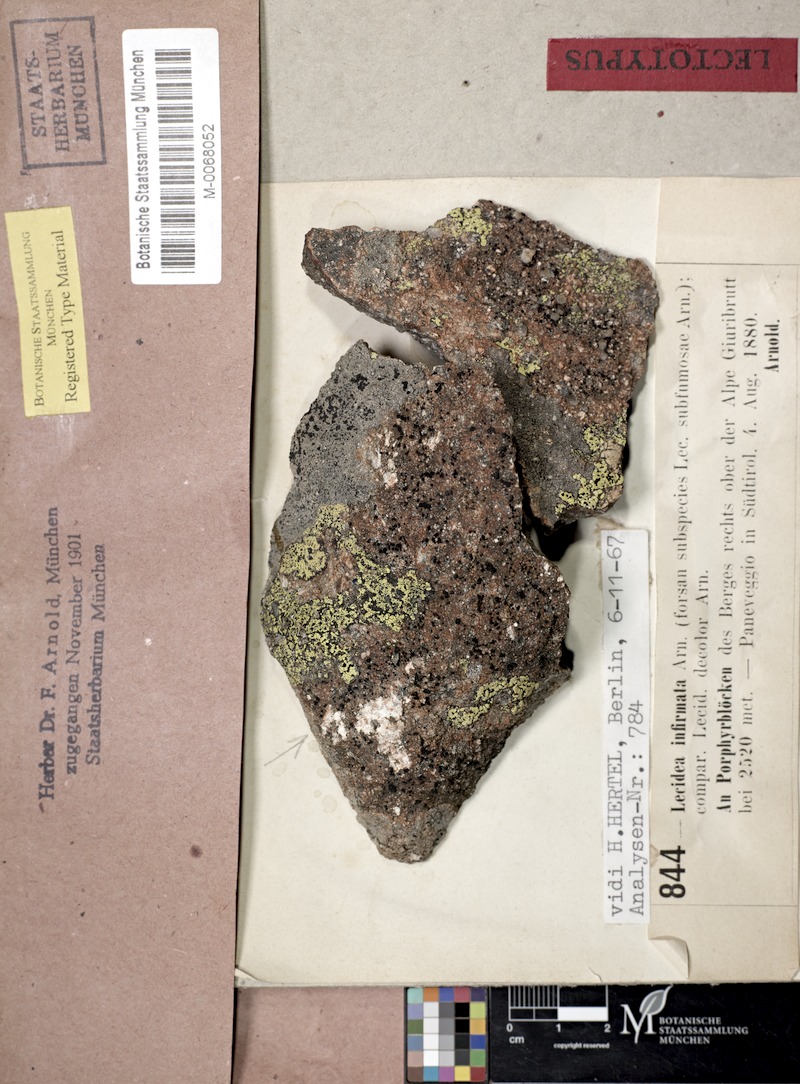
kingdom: Fungi
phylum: Ascomycota
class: Lecanoromycetes
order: Lecideales
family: Lecideaceae
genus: Lecidea
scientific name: Lecidea infirmata
